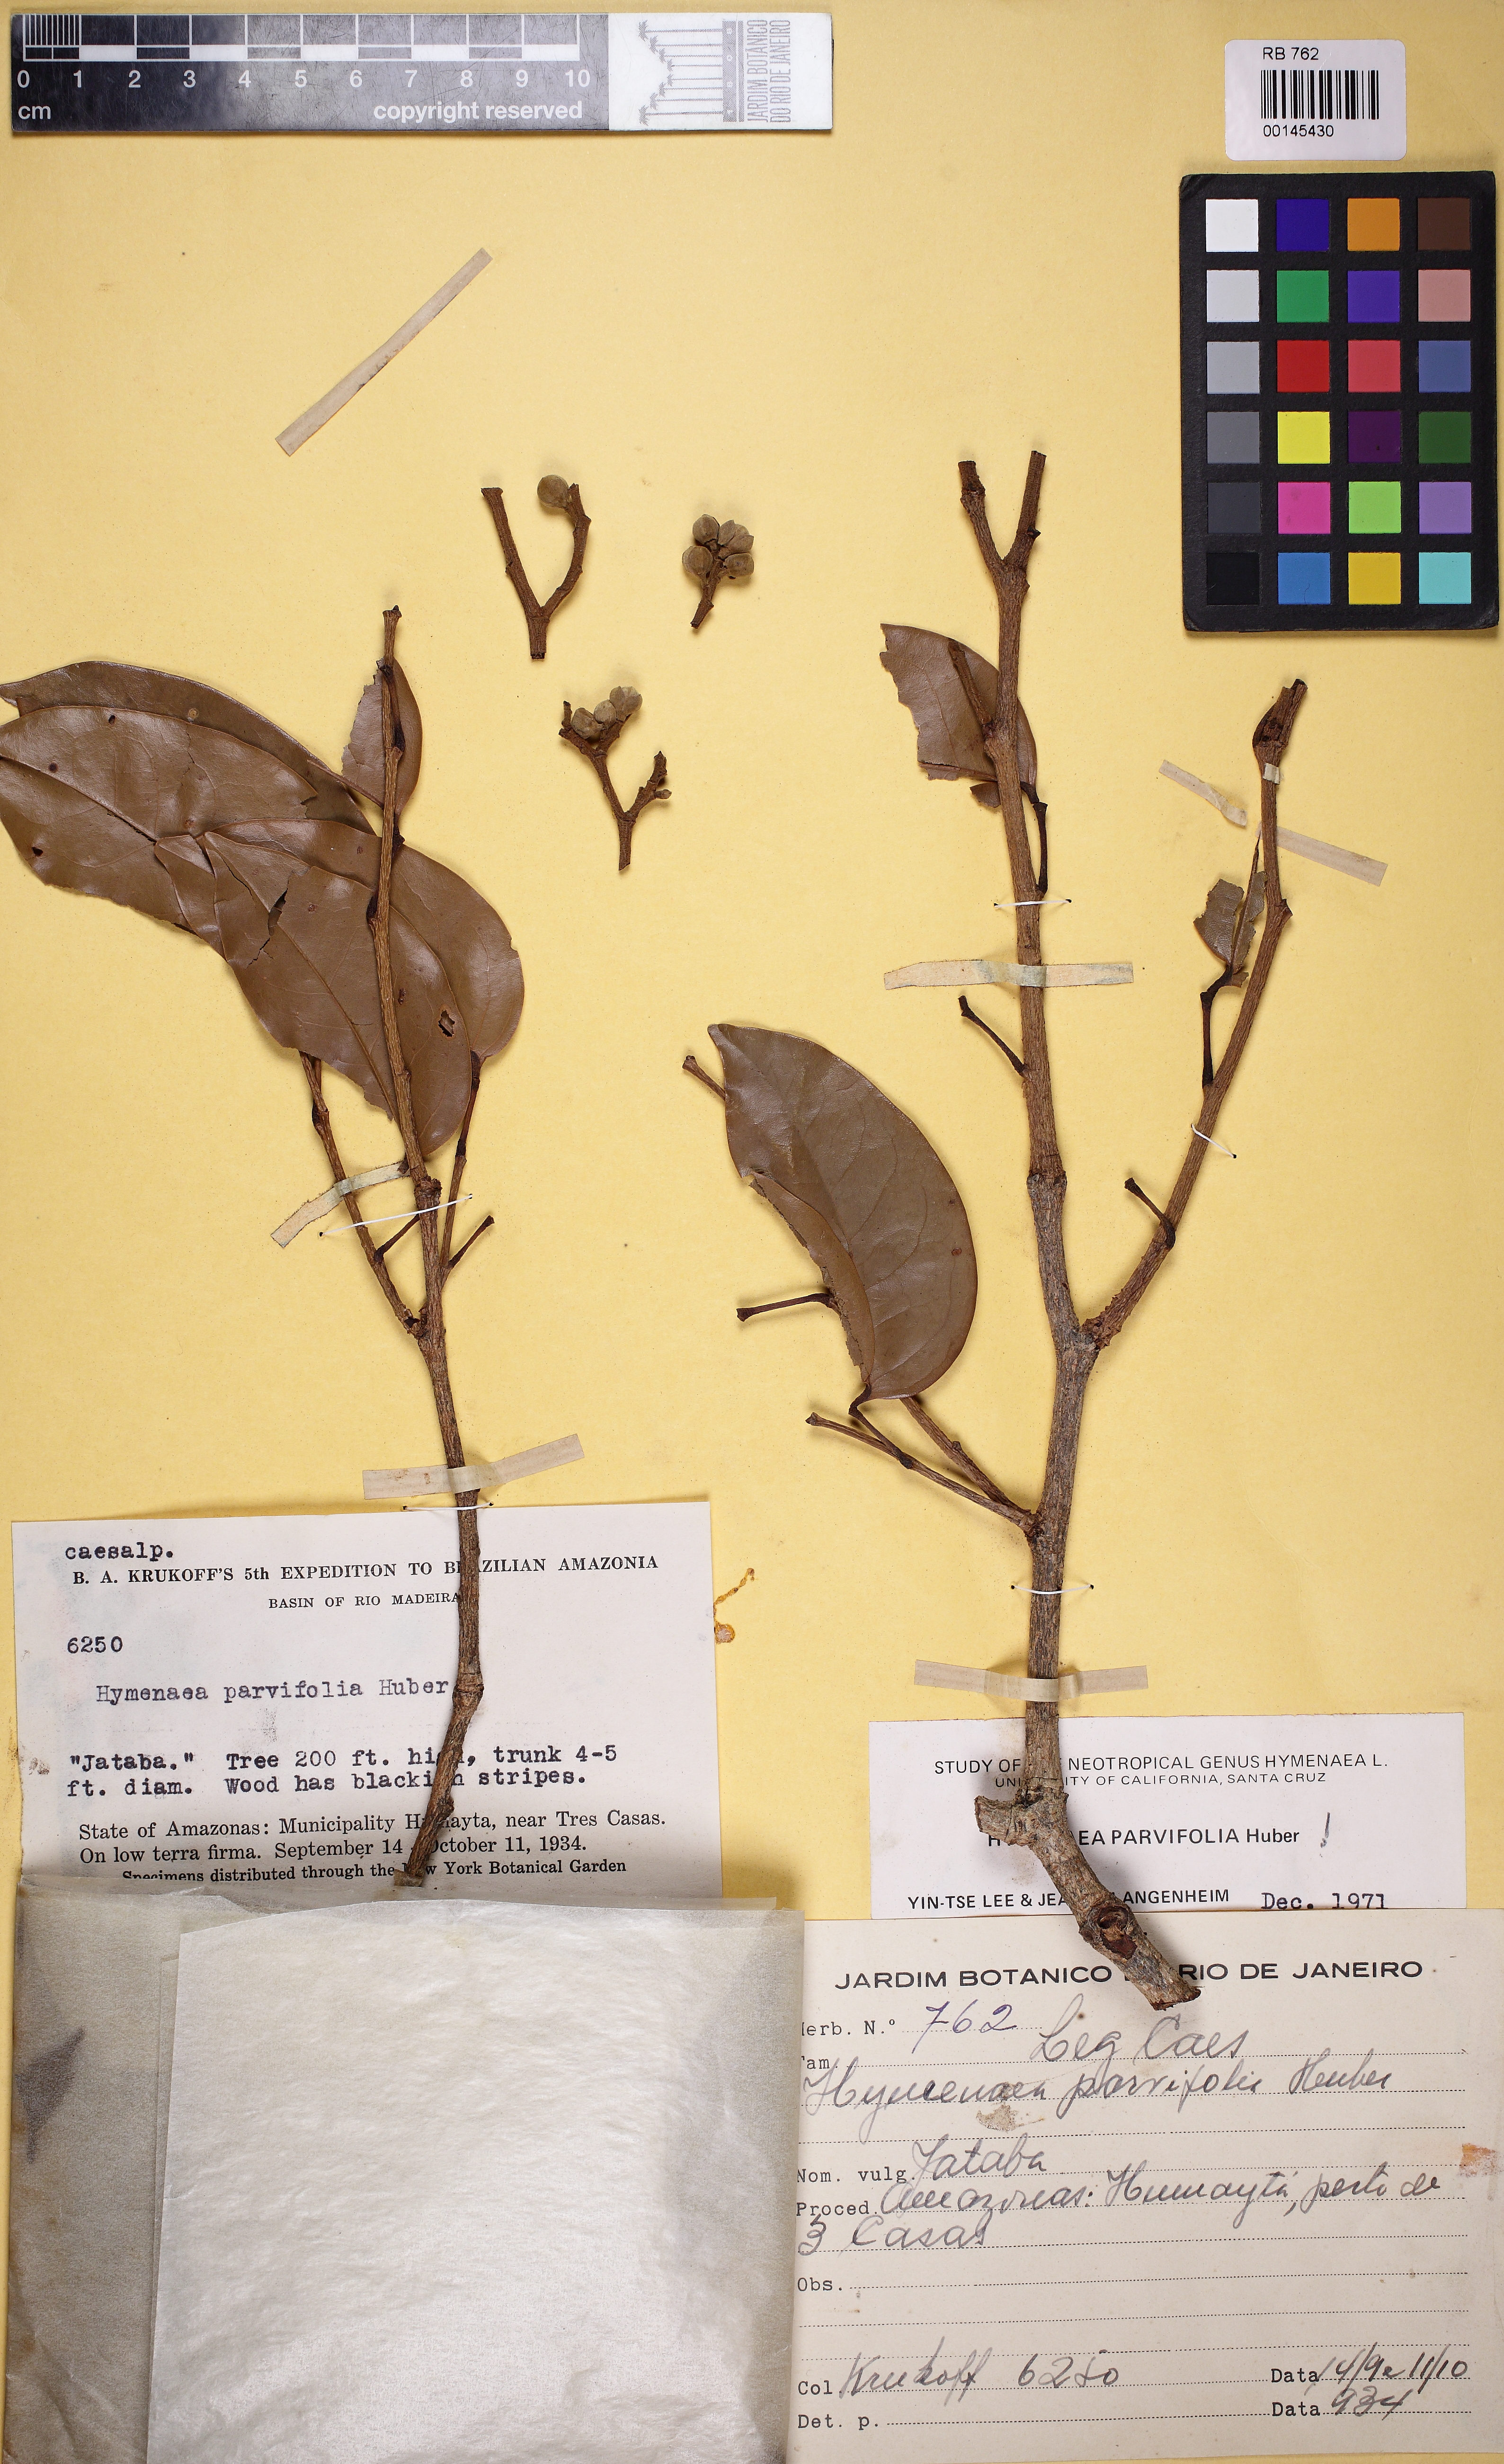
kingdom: Plantae
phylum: Tracheophyta
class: Magnoliopsida
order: Fabales
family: Fabaceae
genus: Hymenaea
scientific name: Hymenaea parvifolia
